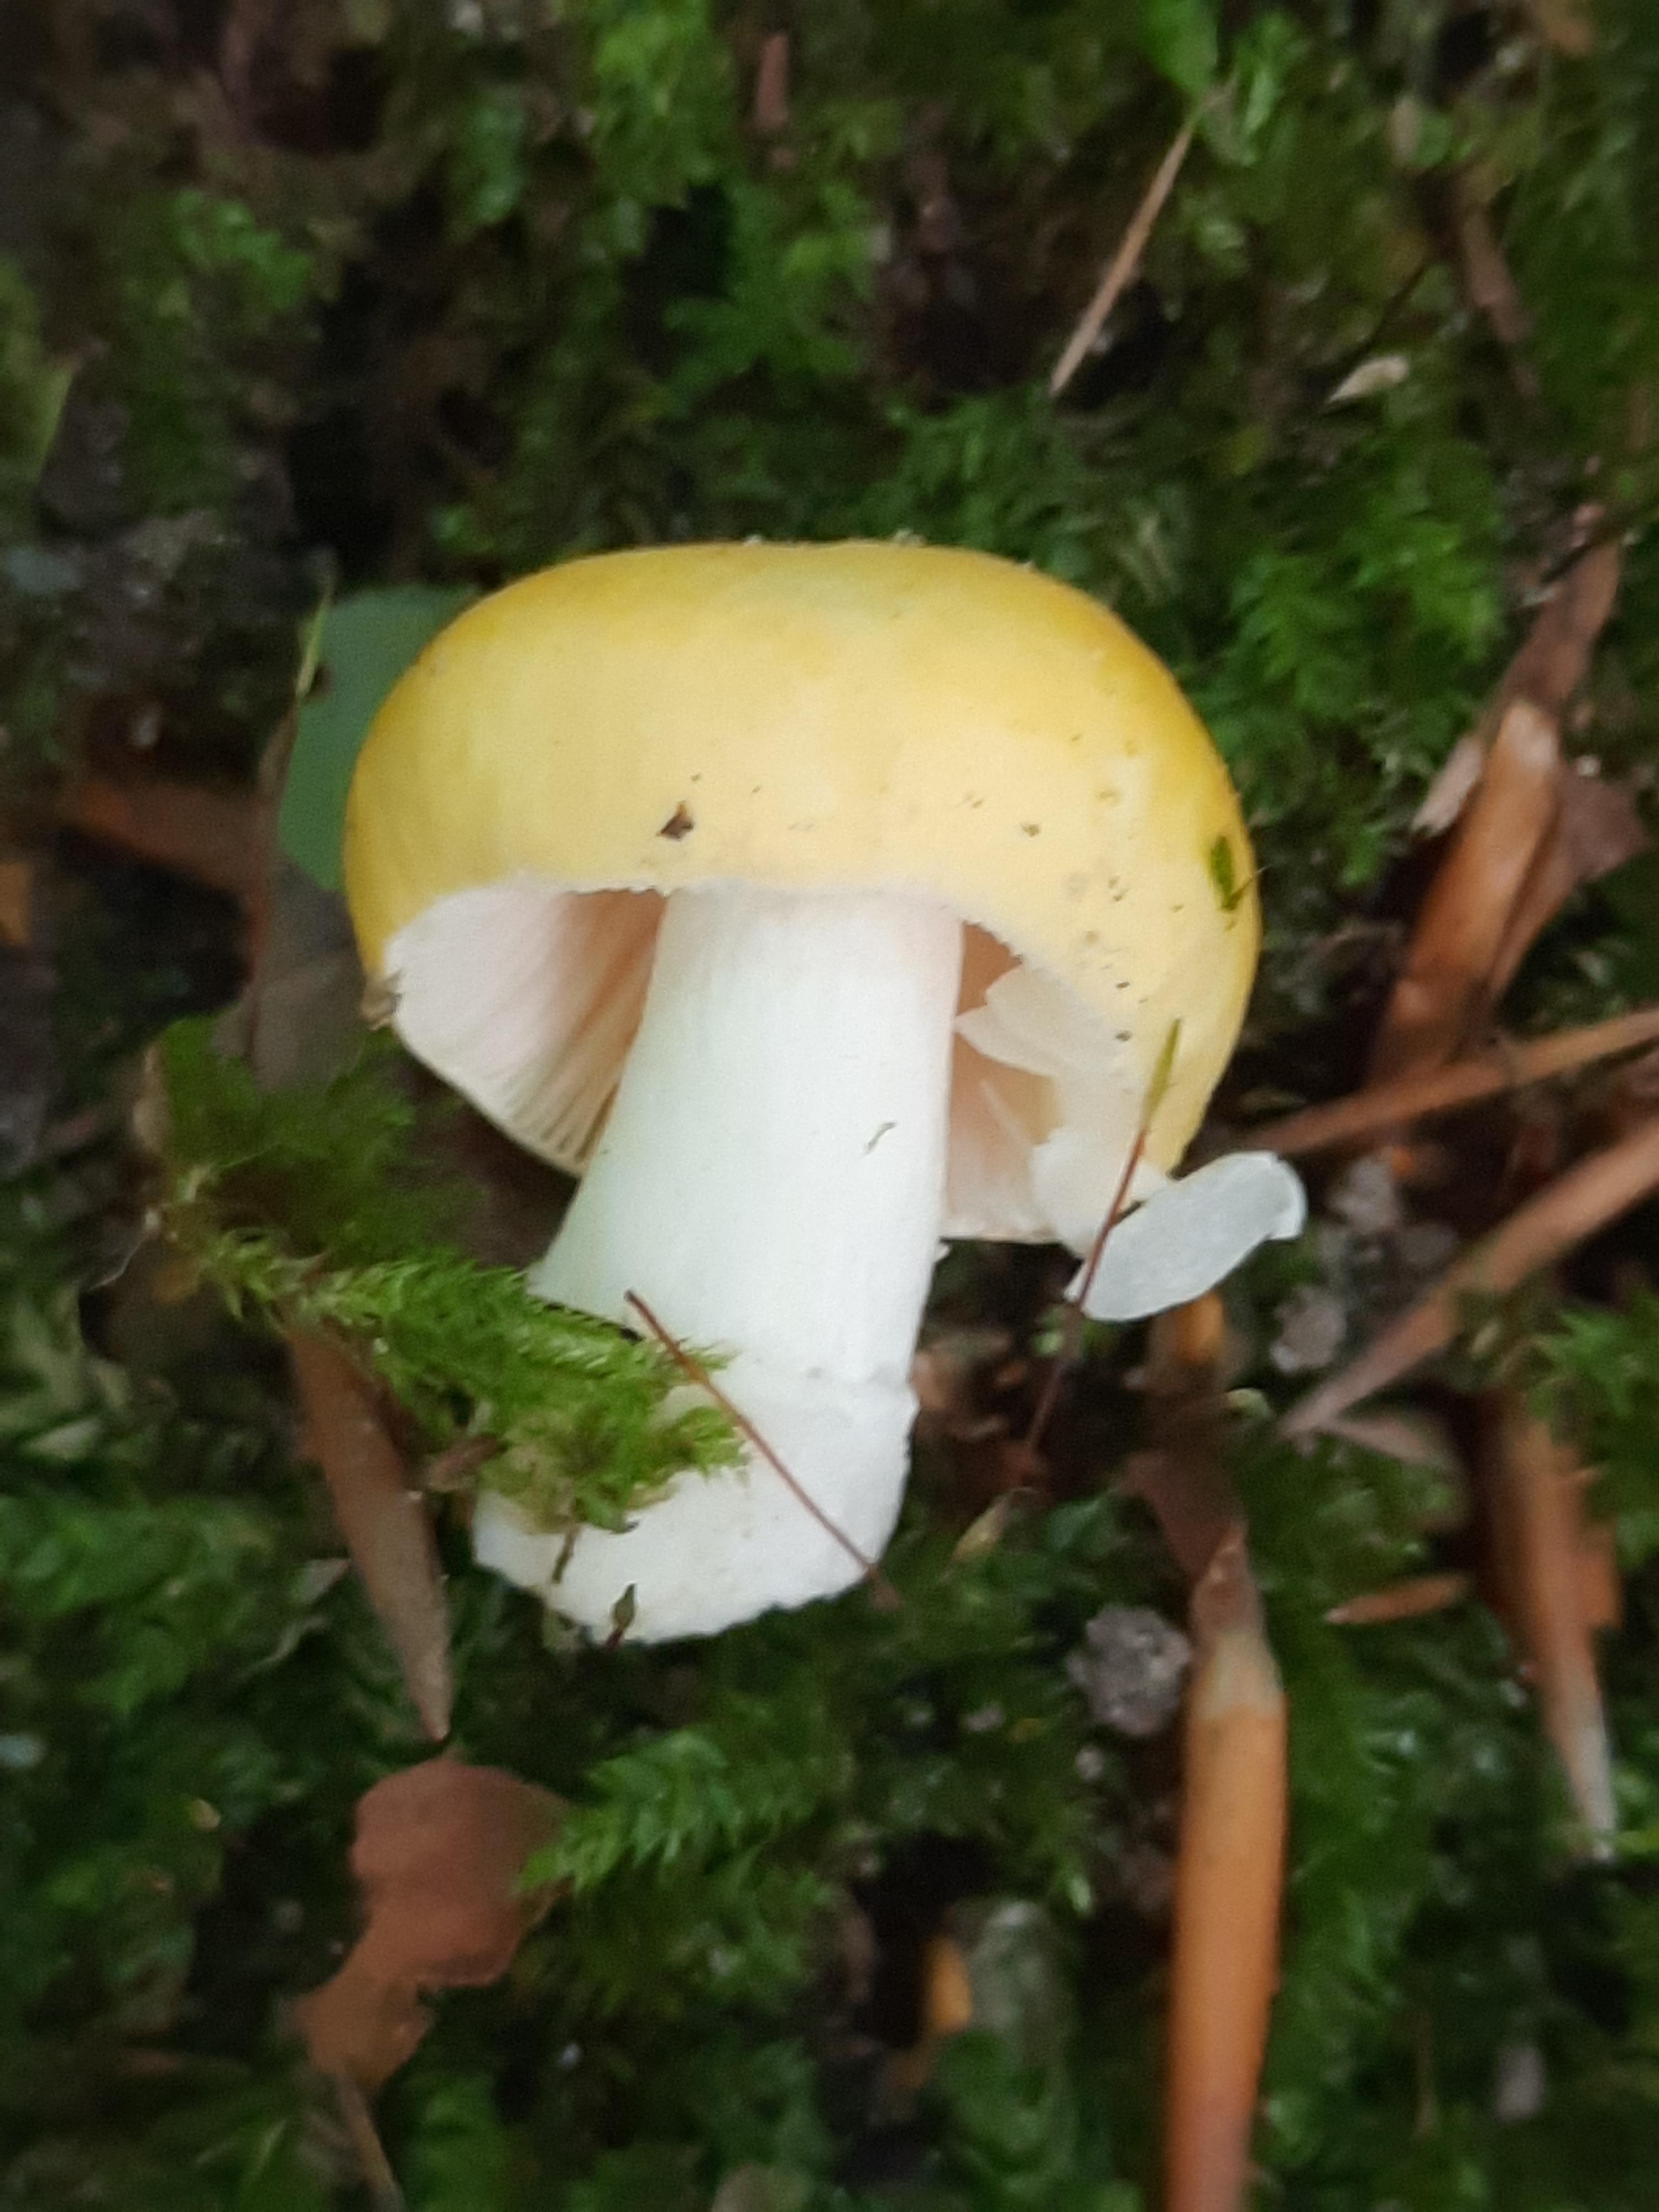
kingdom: Fungi
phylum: Basidiomycota
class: Agaricomycetes
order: Russulales
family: Russulaceae
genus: Russula
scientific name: Russula solaris
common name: sol-skørhat
